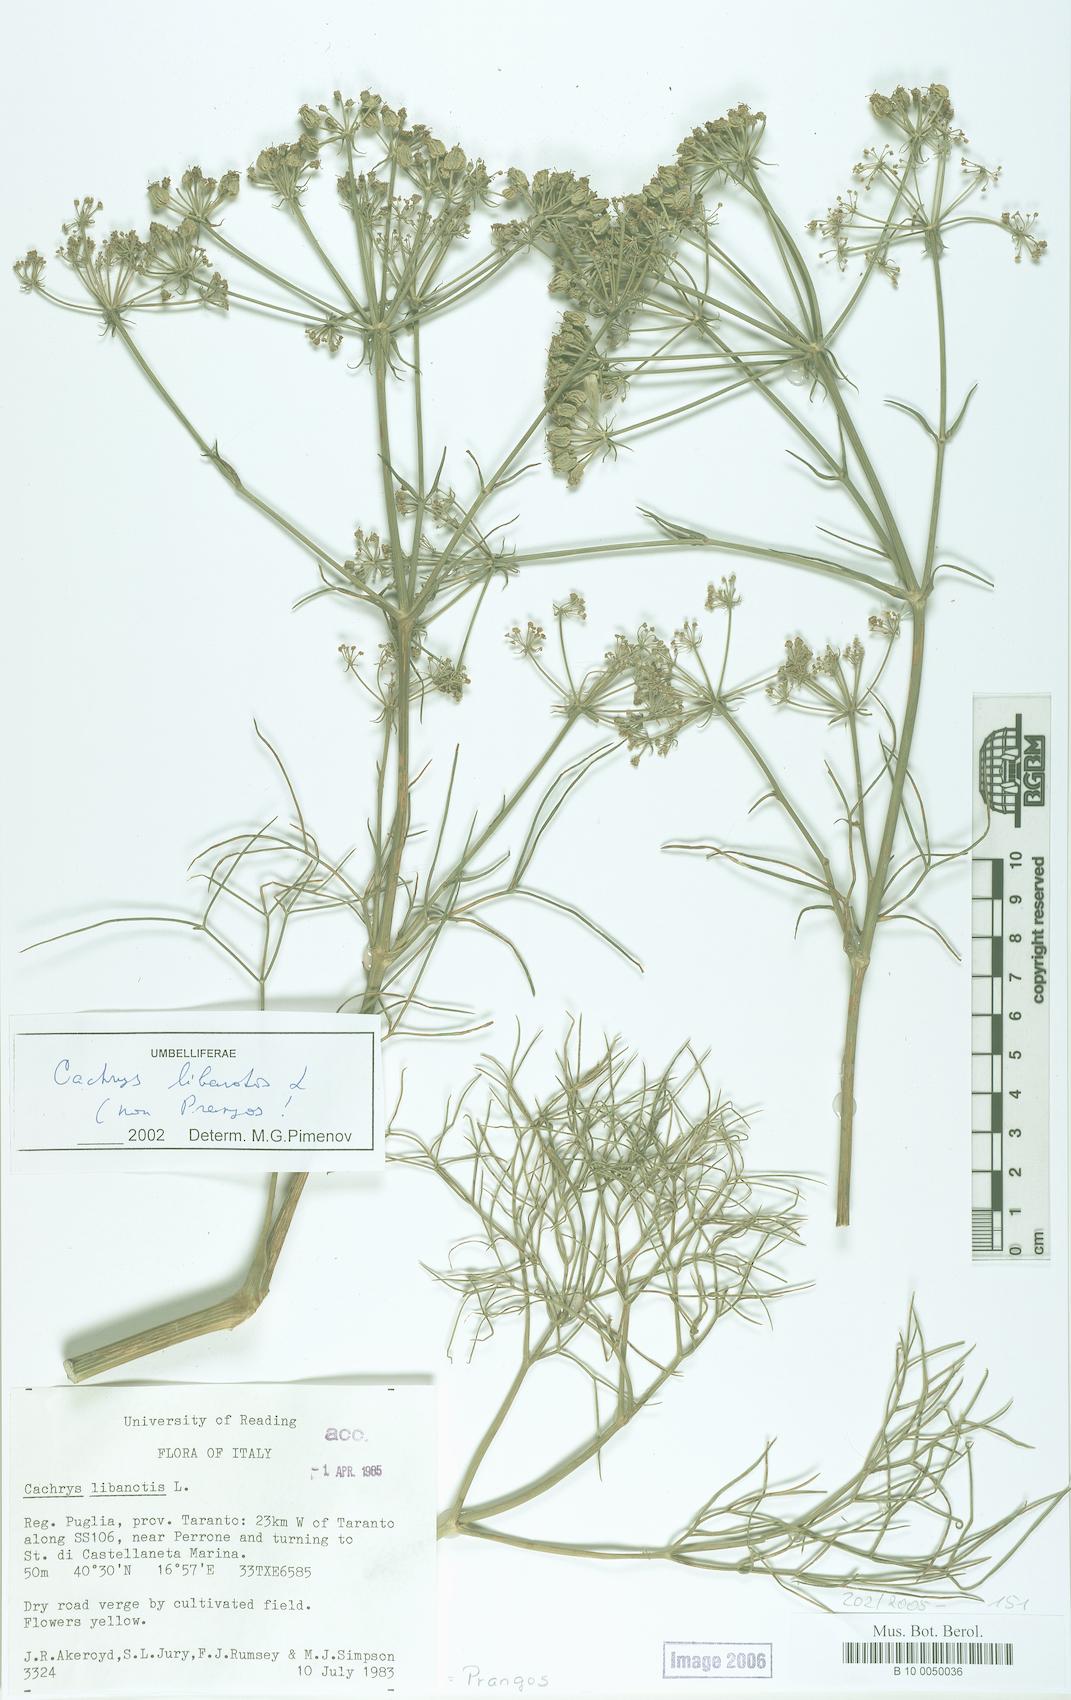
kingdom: Plantae
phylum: Tracheophyta
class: Magnoliopsida
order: Apiales
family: Apiaceae
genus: Cachrys
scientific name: Cachrys libanotis
